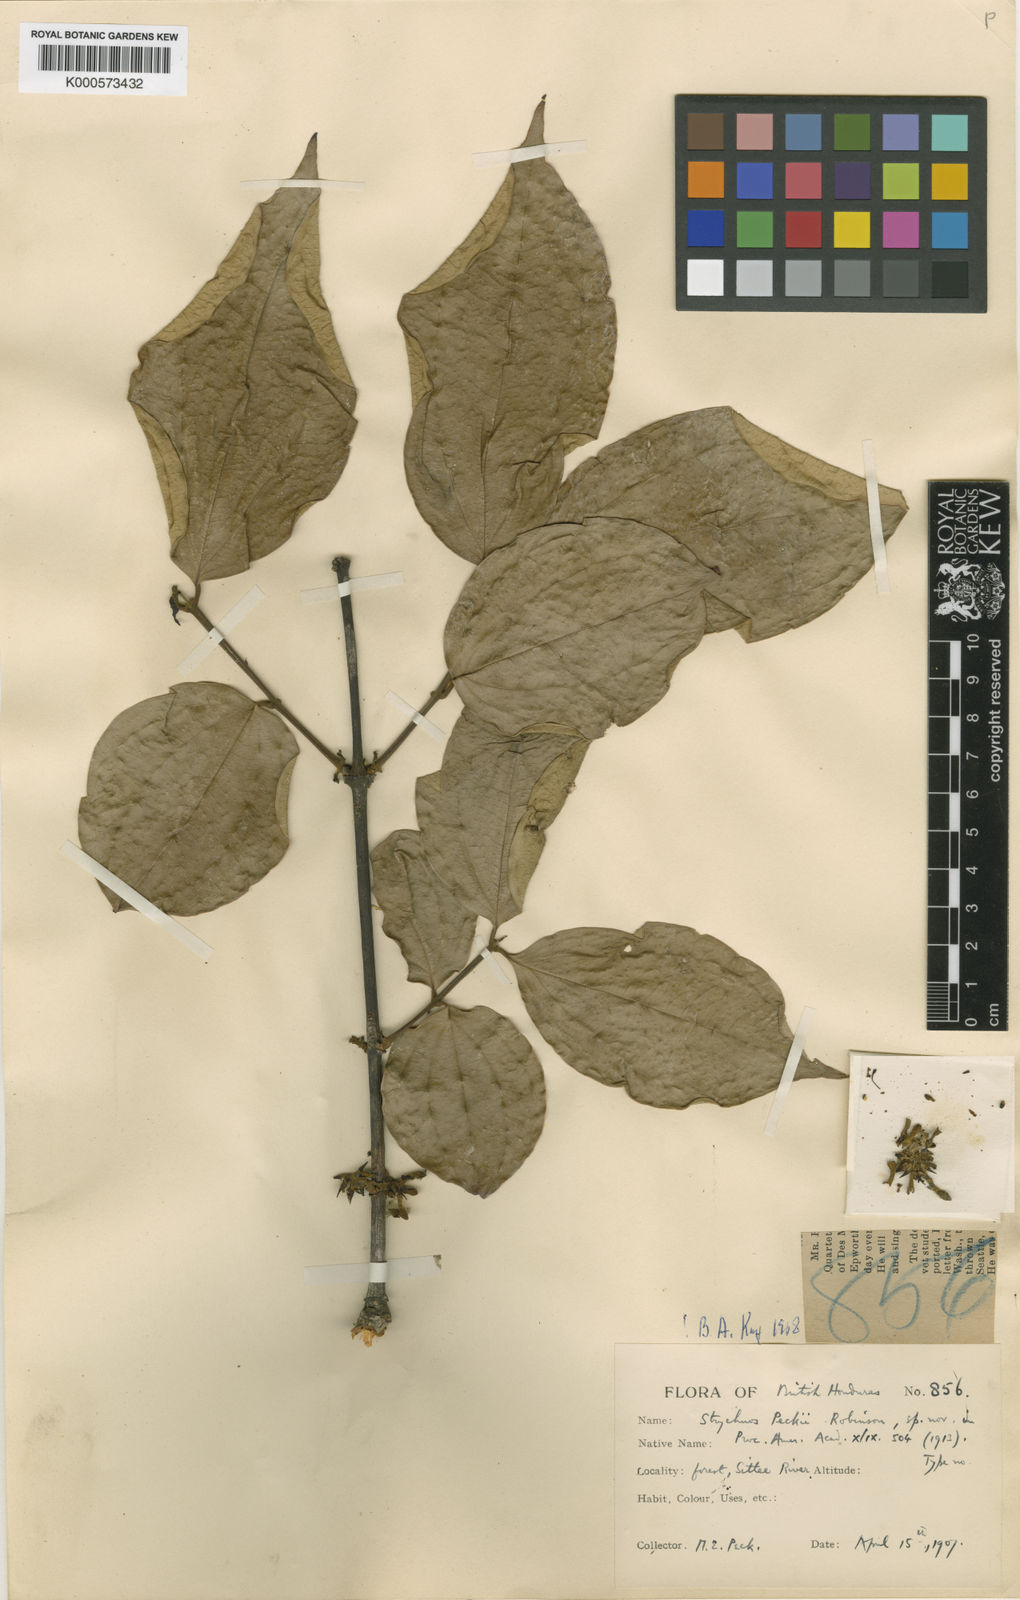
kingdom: Plantae
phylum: Tracheophyta
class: Magnoliopsida
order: Gentianales
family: Loganiaceae
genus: Strychnos
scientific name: Strychnos peckii
